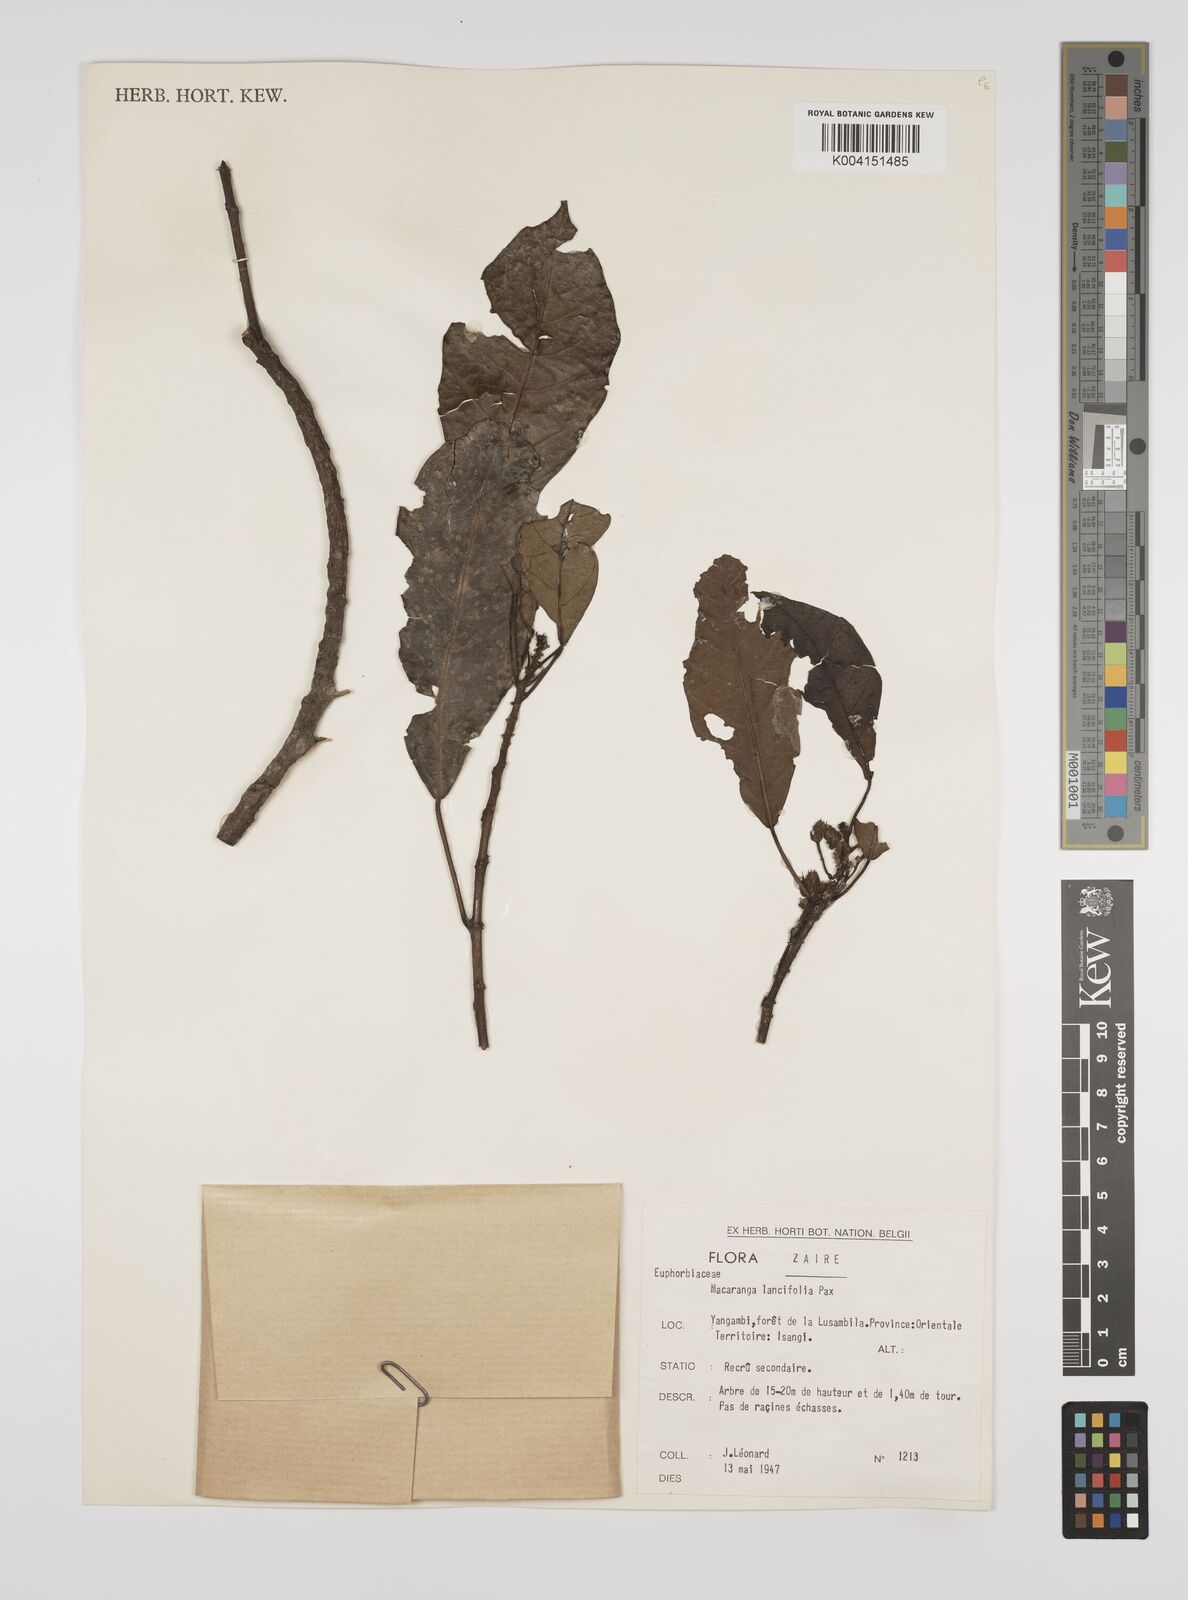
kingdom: Plantae
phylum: Tracheophyta
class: Magnoliopsida
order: Malpighiales
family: Euphorbiaceae
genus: Macaranga
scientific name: Macaranga barteri
